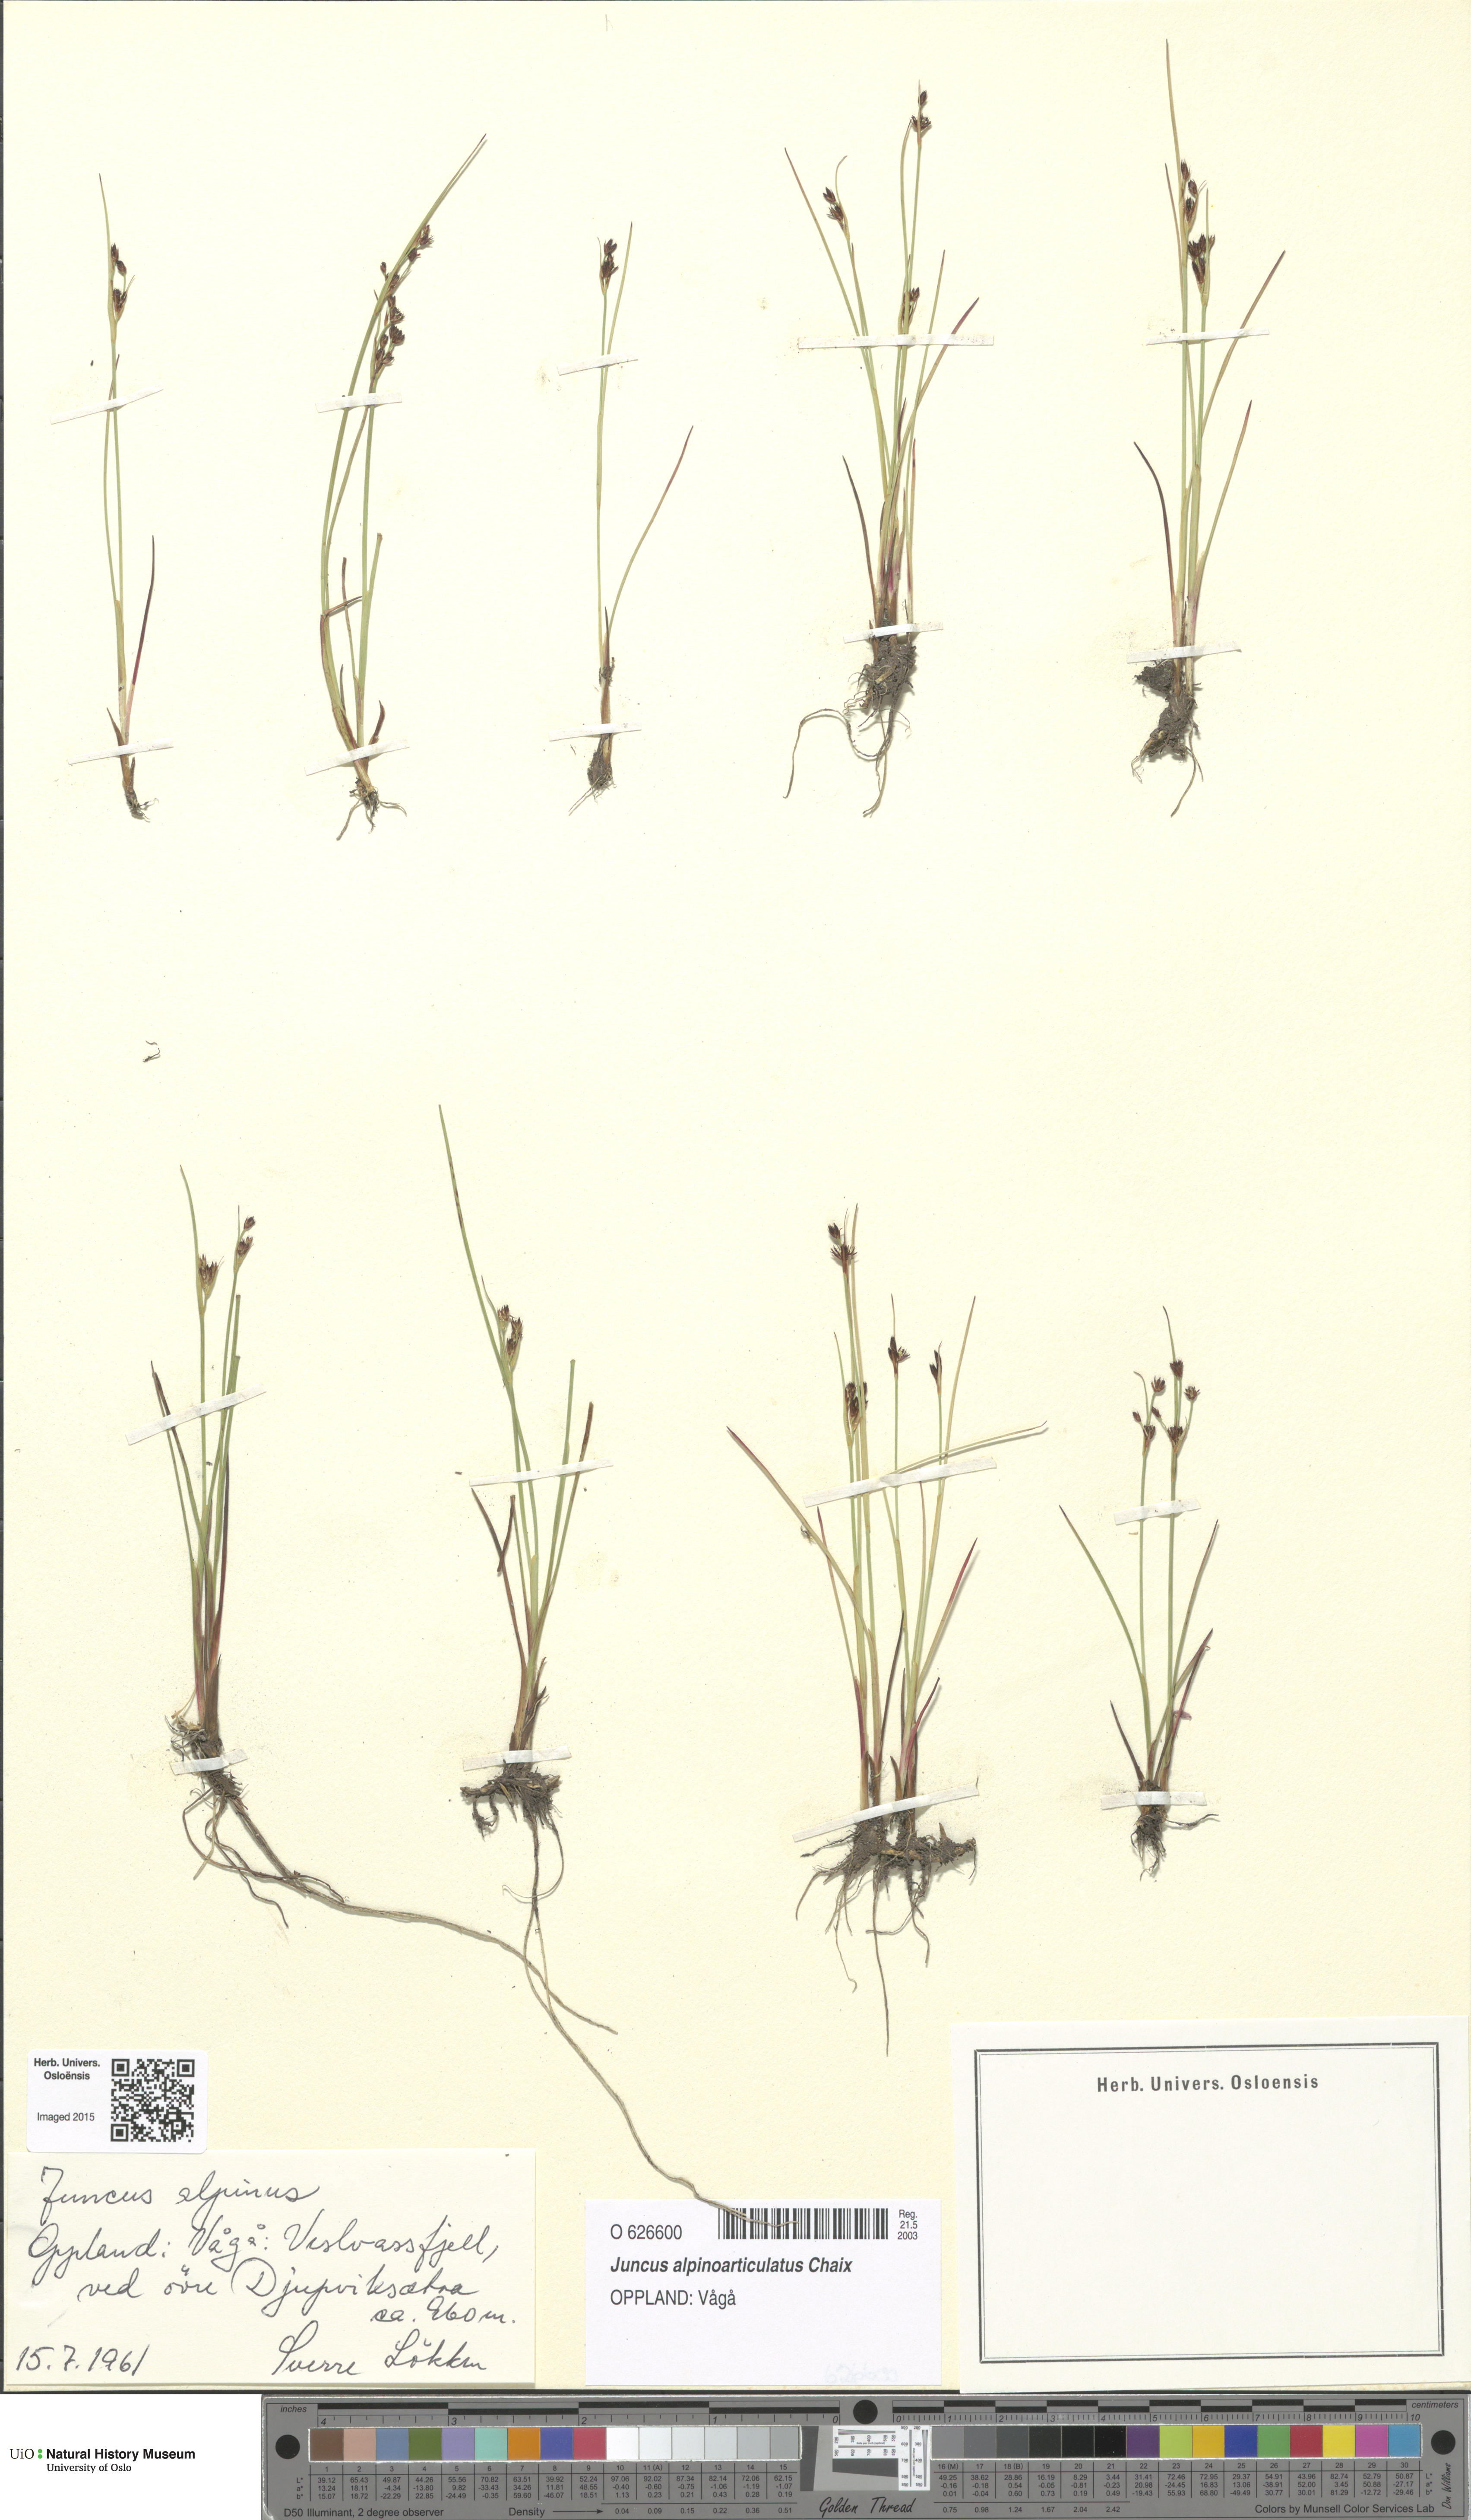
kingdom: Plantae
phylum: Tracheophyta
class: Liliopsida
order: Poales
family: Juncaceae
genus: Juncus
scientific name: Juncus alpinoarticulatus
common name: Alpine rush
